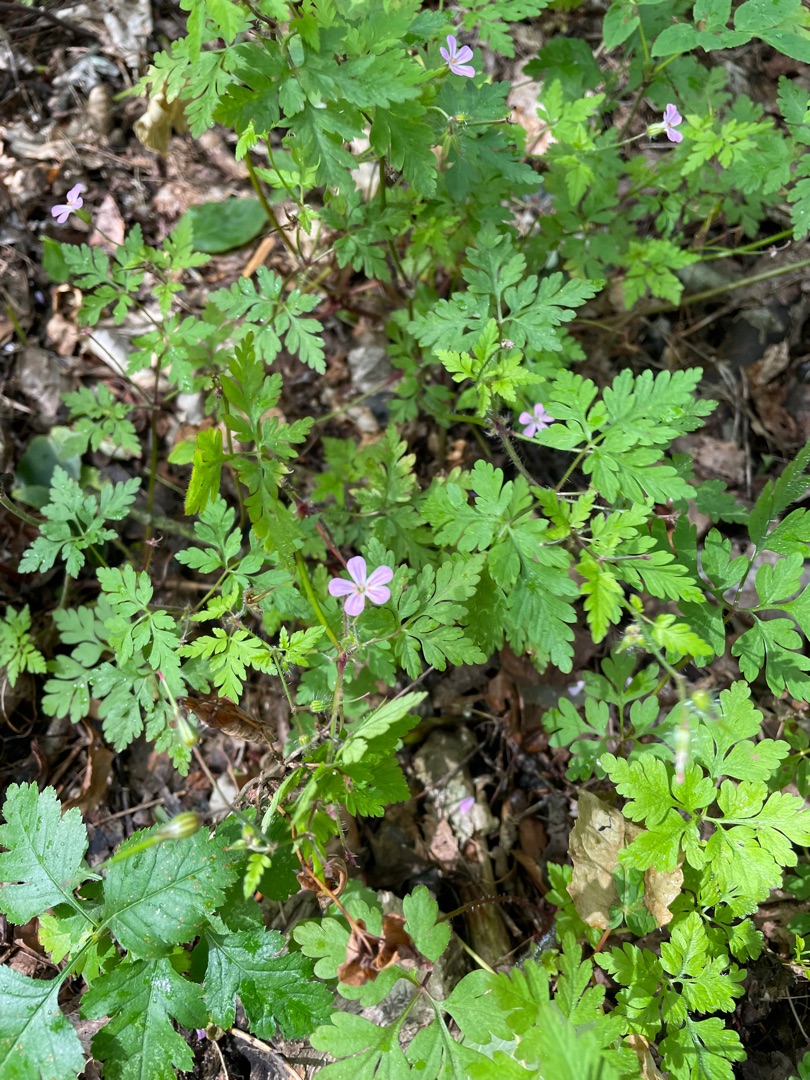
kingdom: Plantae
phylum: Tracheophyta
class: Magnoliopsida
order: Geraniales
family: Geraniaceae
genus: Geranium
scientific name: Geranium robertianum
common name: Stinkende storkenæb
